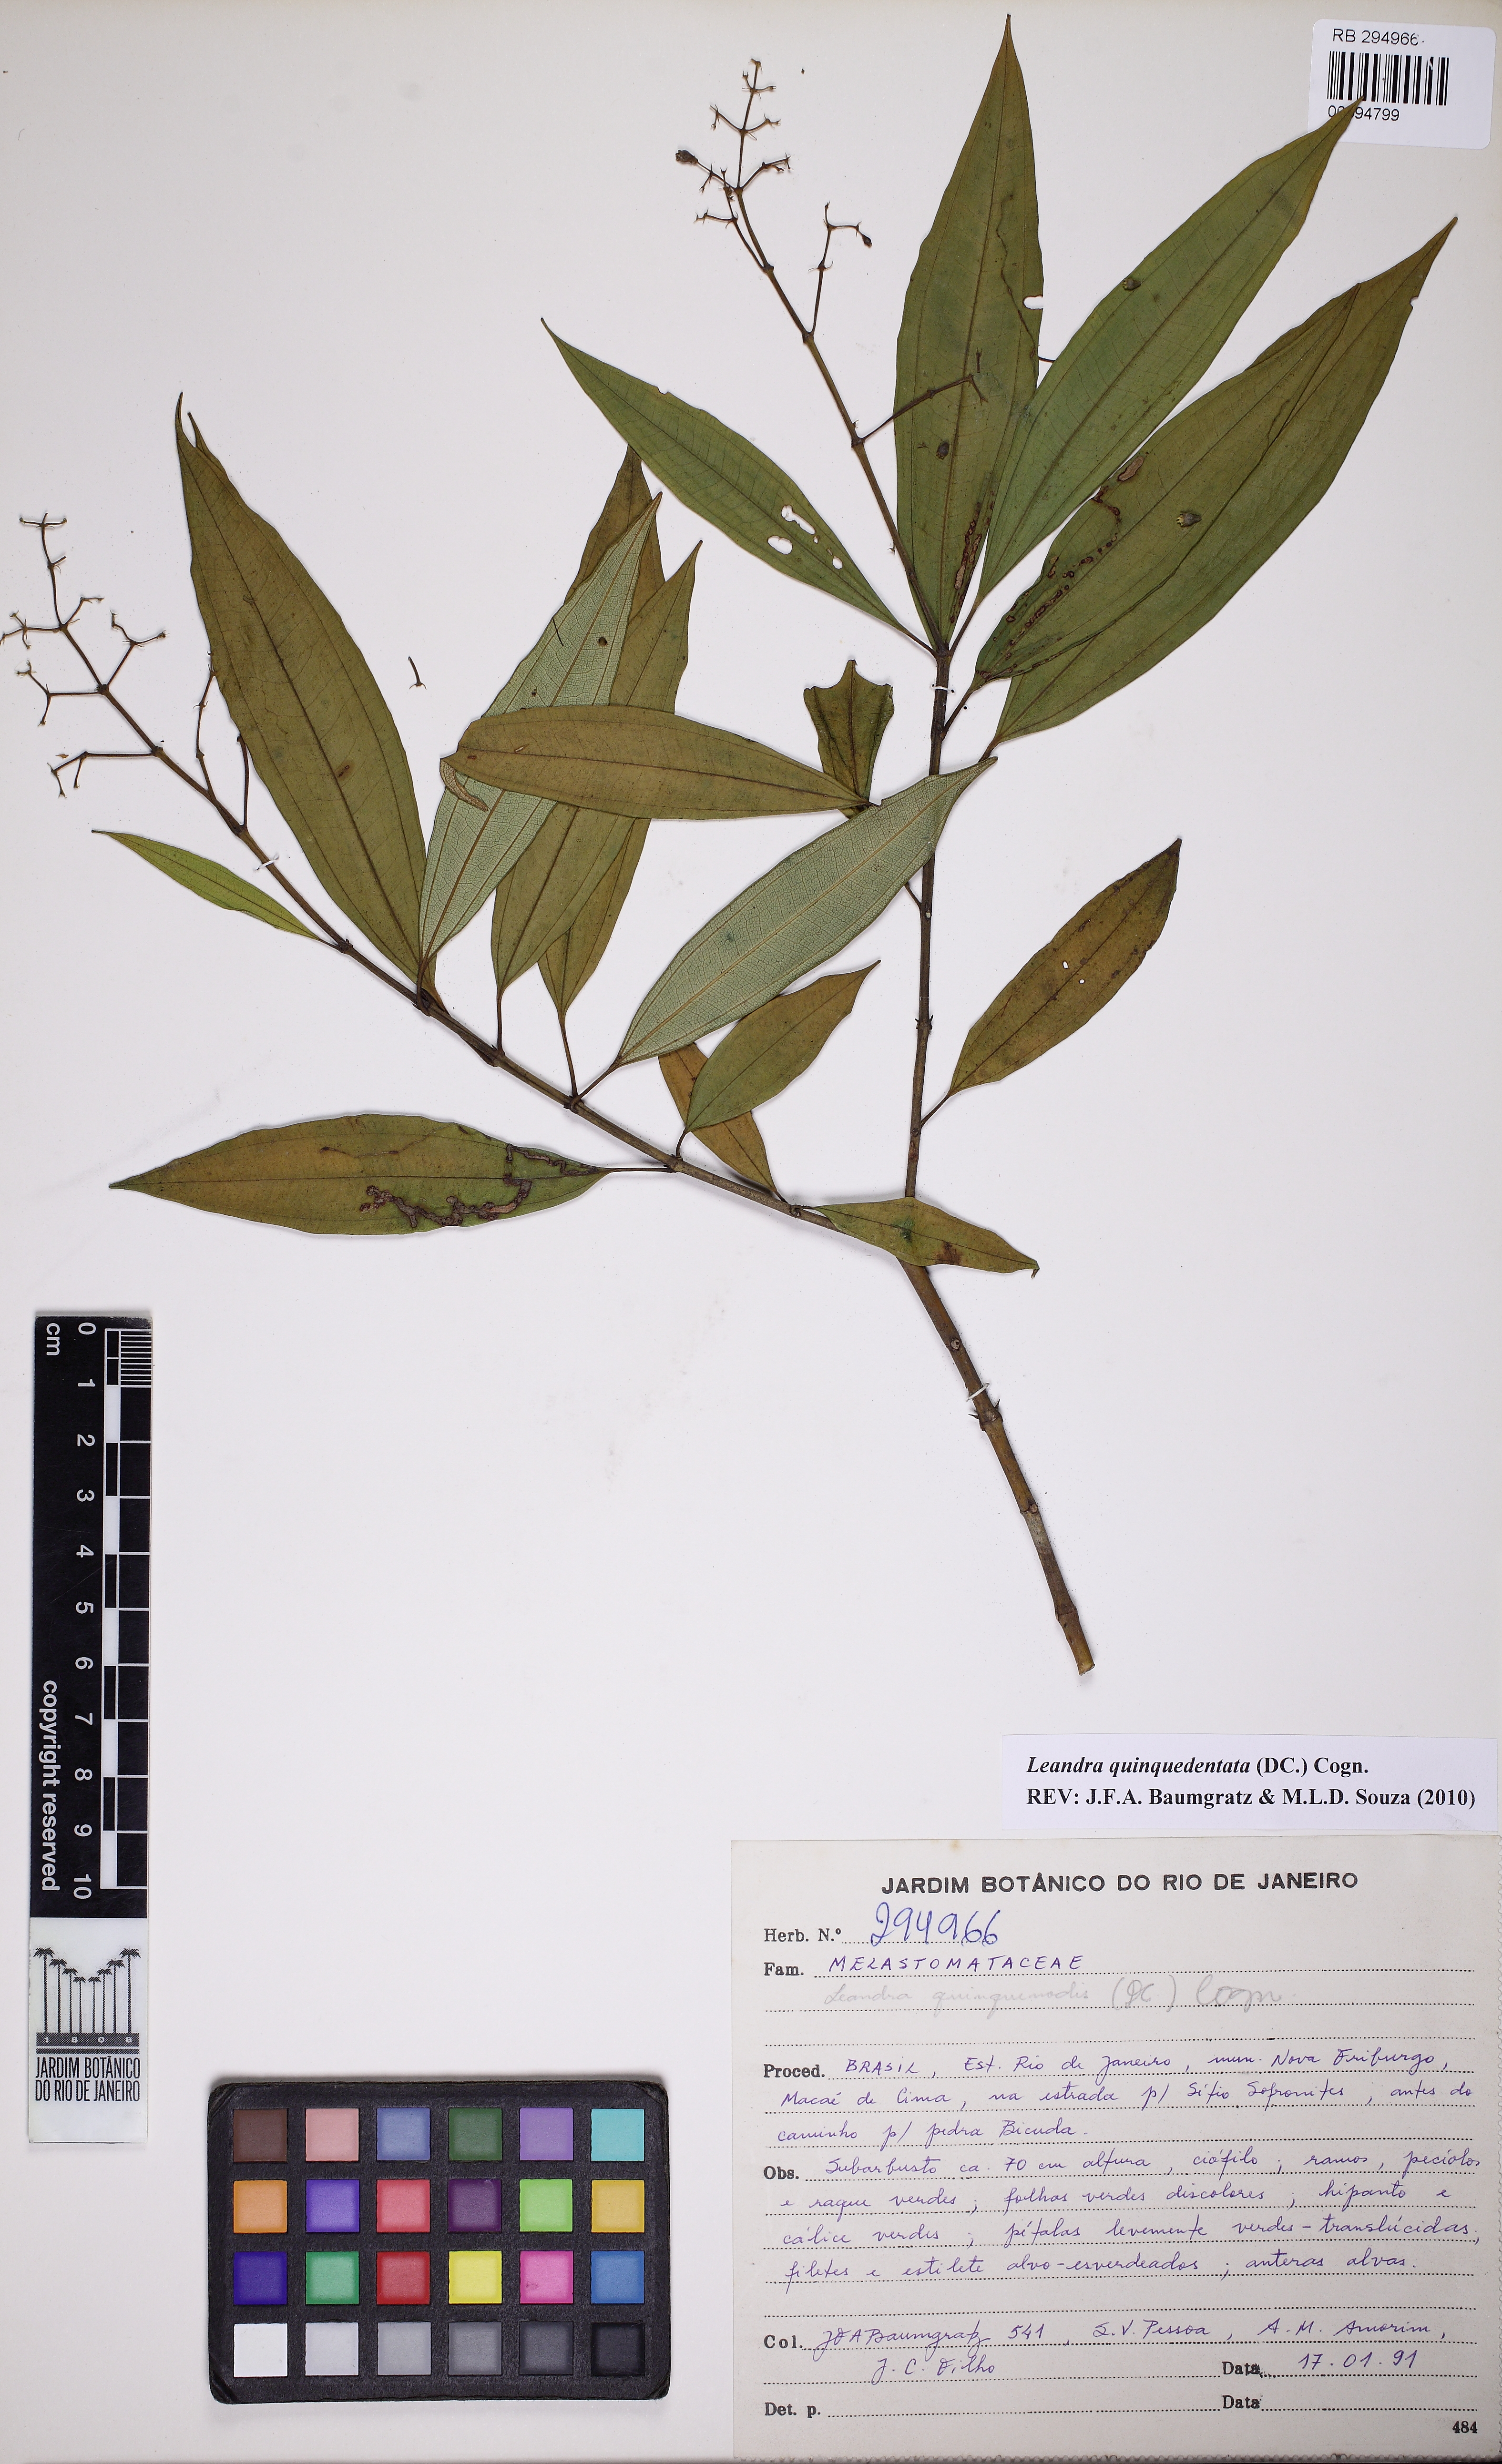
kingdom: Plantae
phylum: Tracheophyta
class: Magnoliopsida
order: Myrtales
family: Melastomataceae
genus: Miconia
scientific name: Miconia quinquedentata
